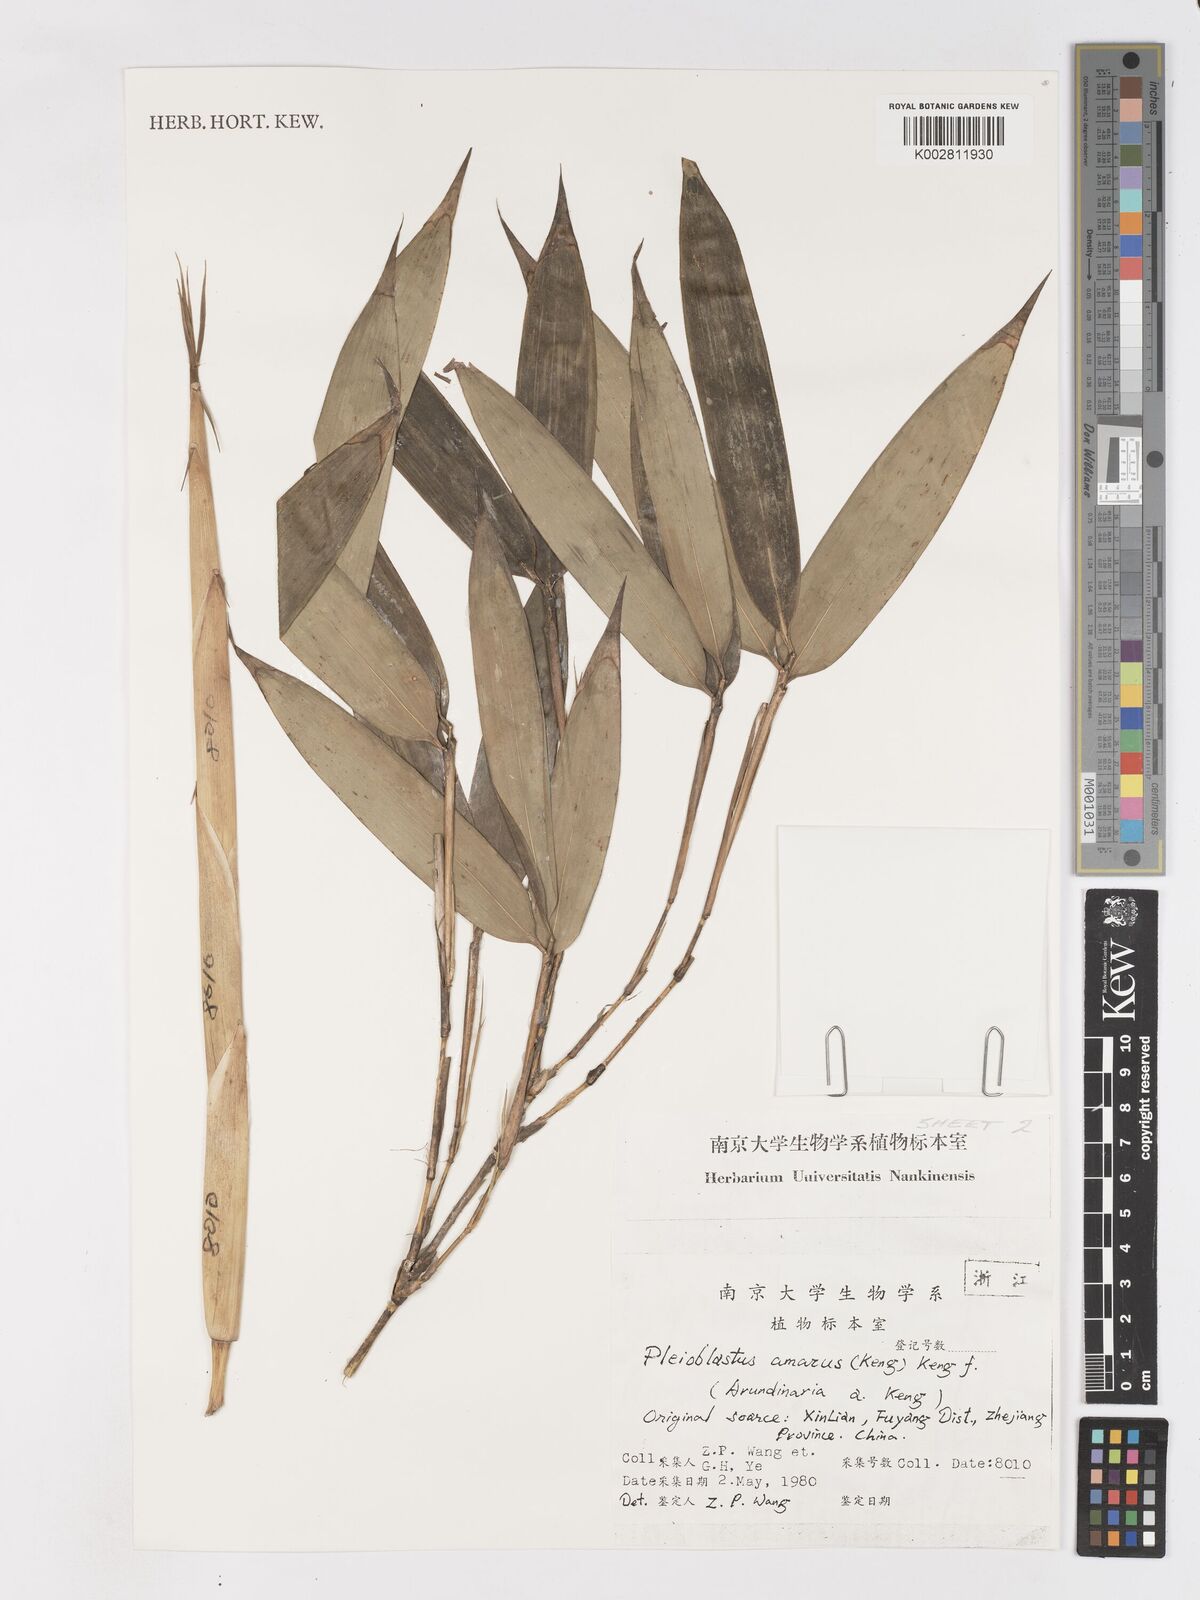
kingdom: Plantae
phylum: Tracheophyta
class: Liliopsida
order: Poales
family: Poaceae
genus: Pleioblastus
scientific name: Pleioblastus amarus
